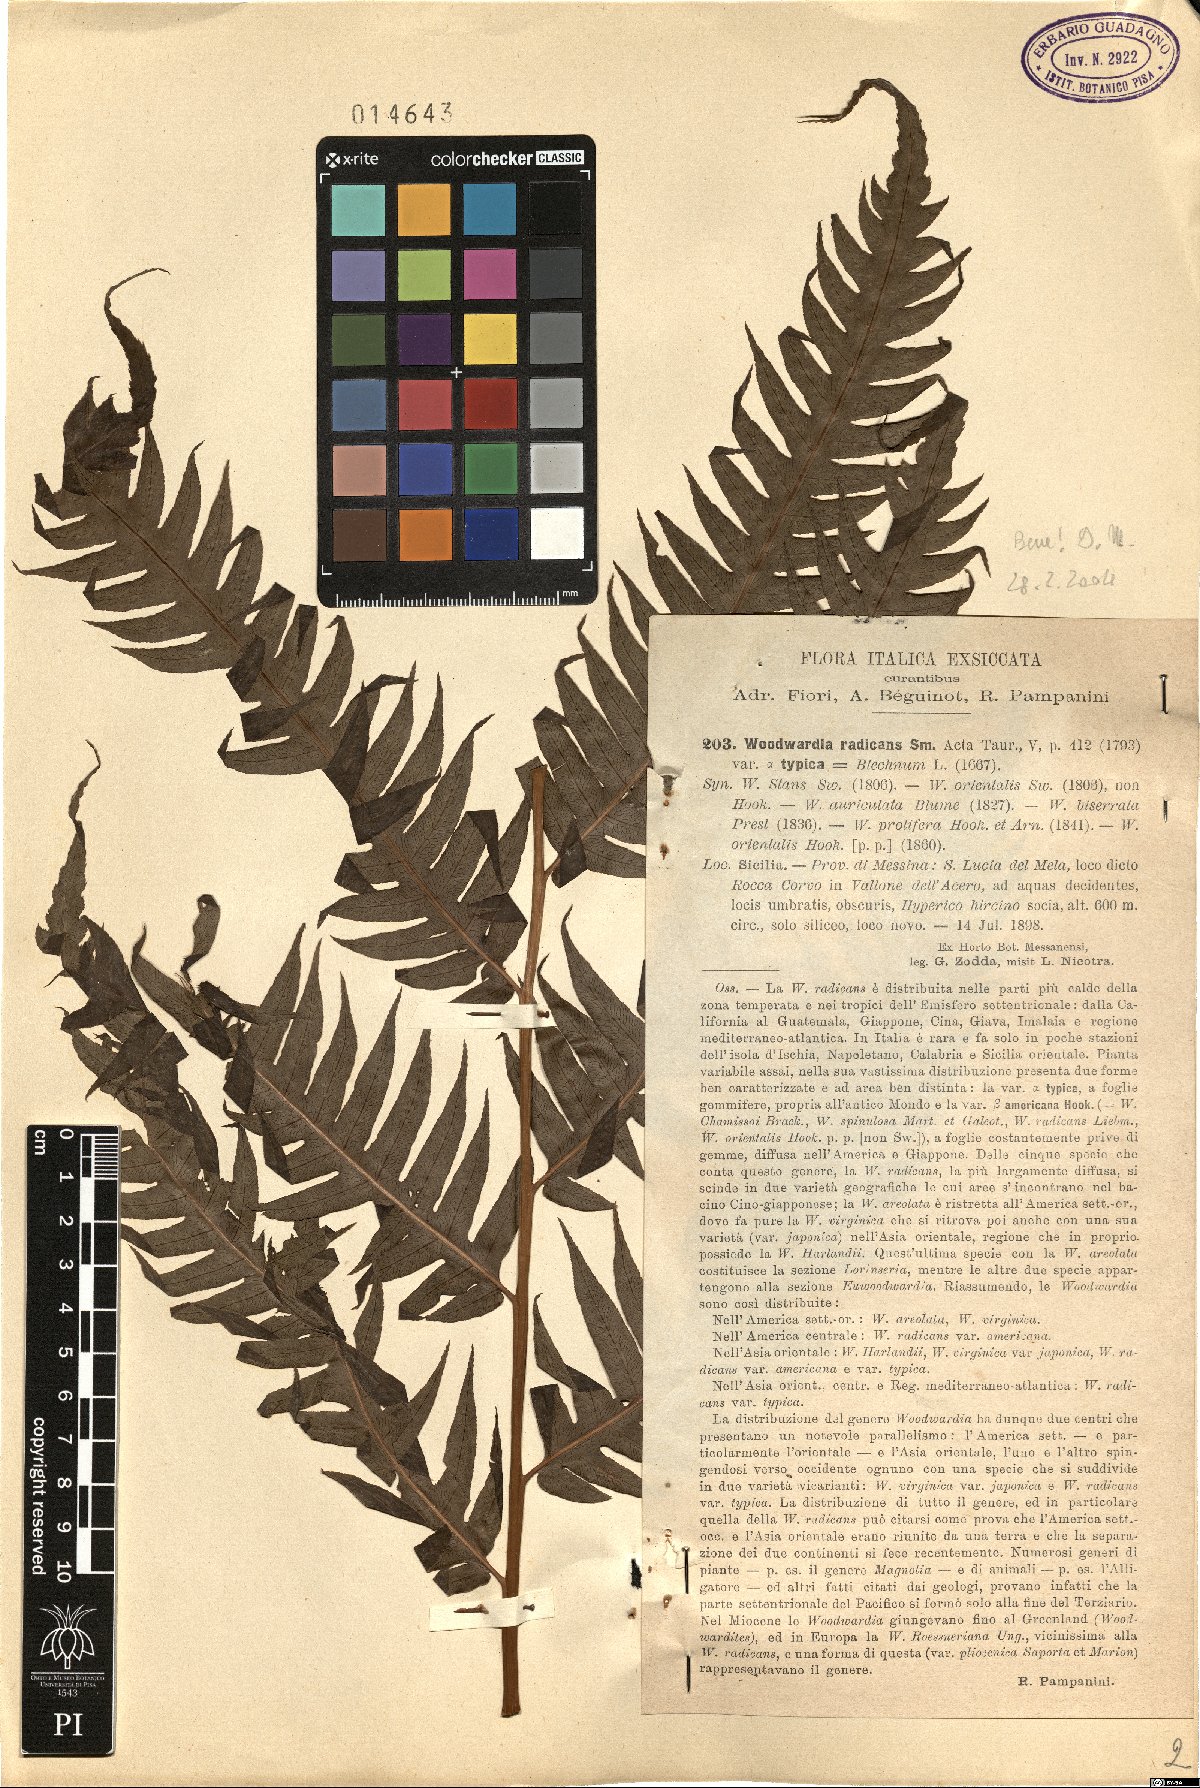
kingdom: Plantae
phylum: Tracheophyta
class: Polypodiopsida
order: Polypodiales
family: Blechnaceae
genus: Woodwardia
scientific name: Woodwardia radicans
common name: Rooting chainfern
